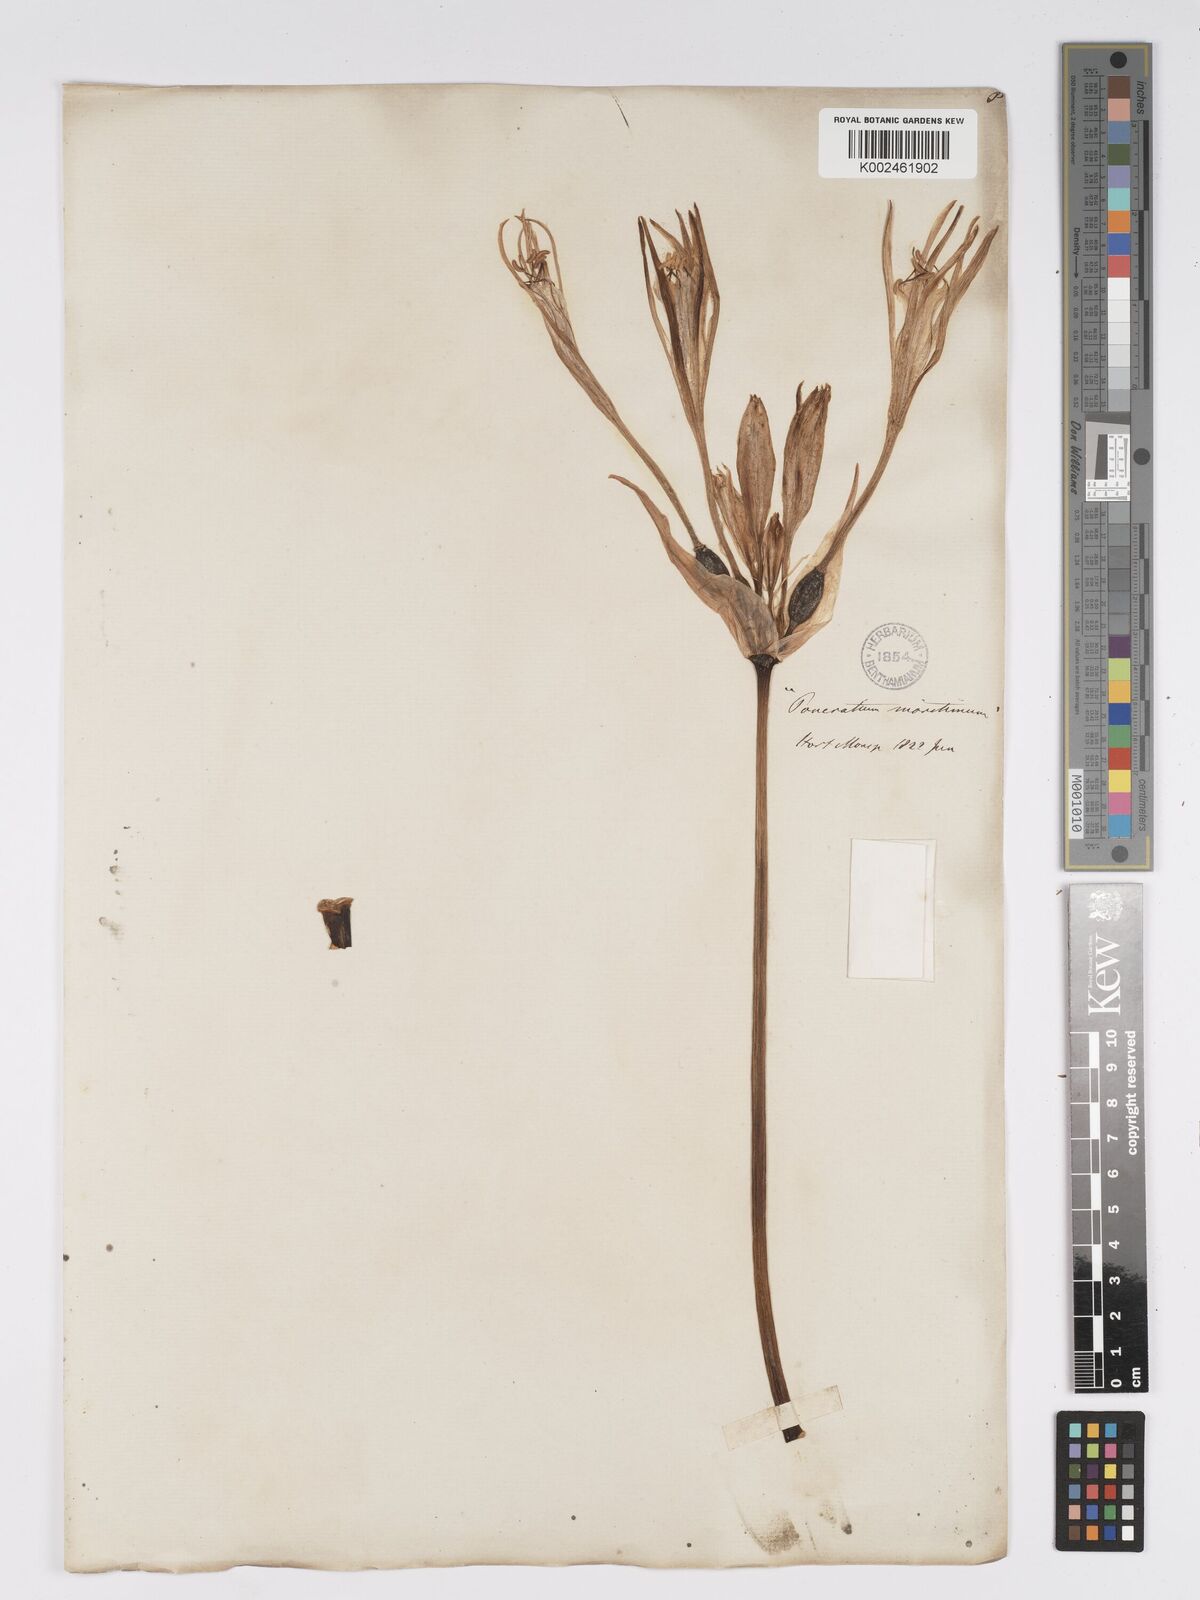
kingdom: Plantae
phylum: Tracheophyta
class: Liliopsida
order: Asparagales
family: Amaryllidaceae
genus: Pancratium
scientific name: Pancratium maritimum
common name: Sea-daffodil
